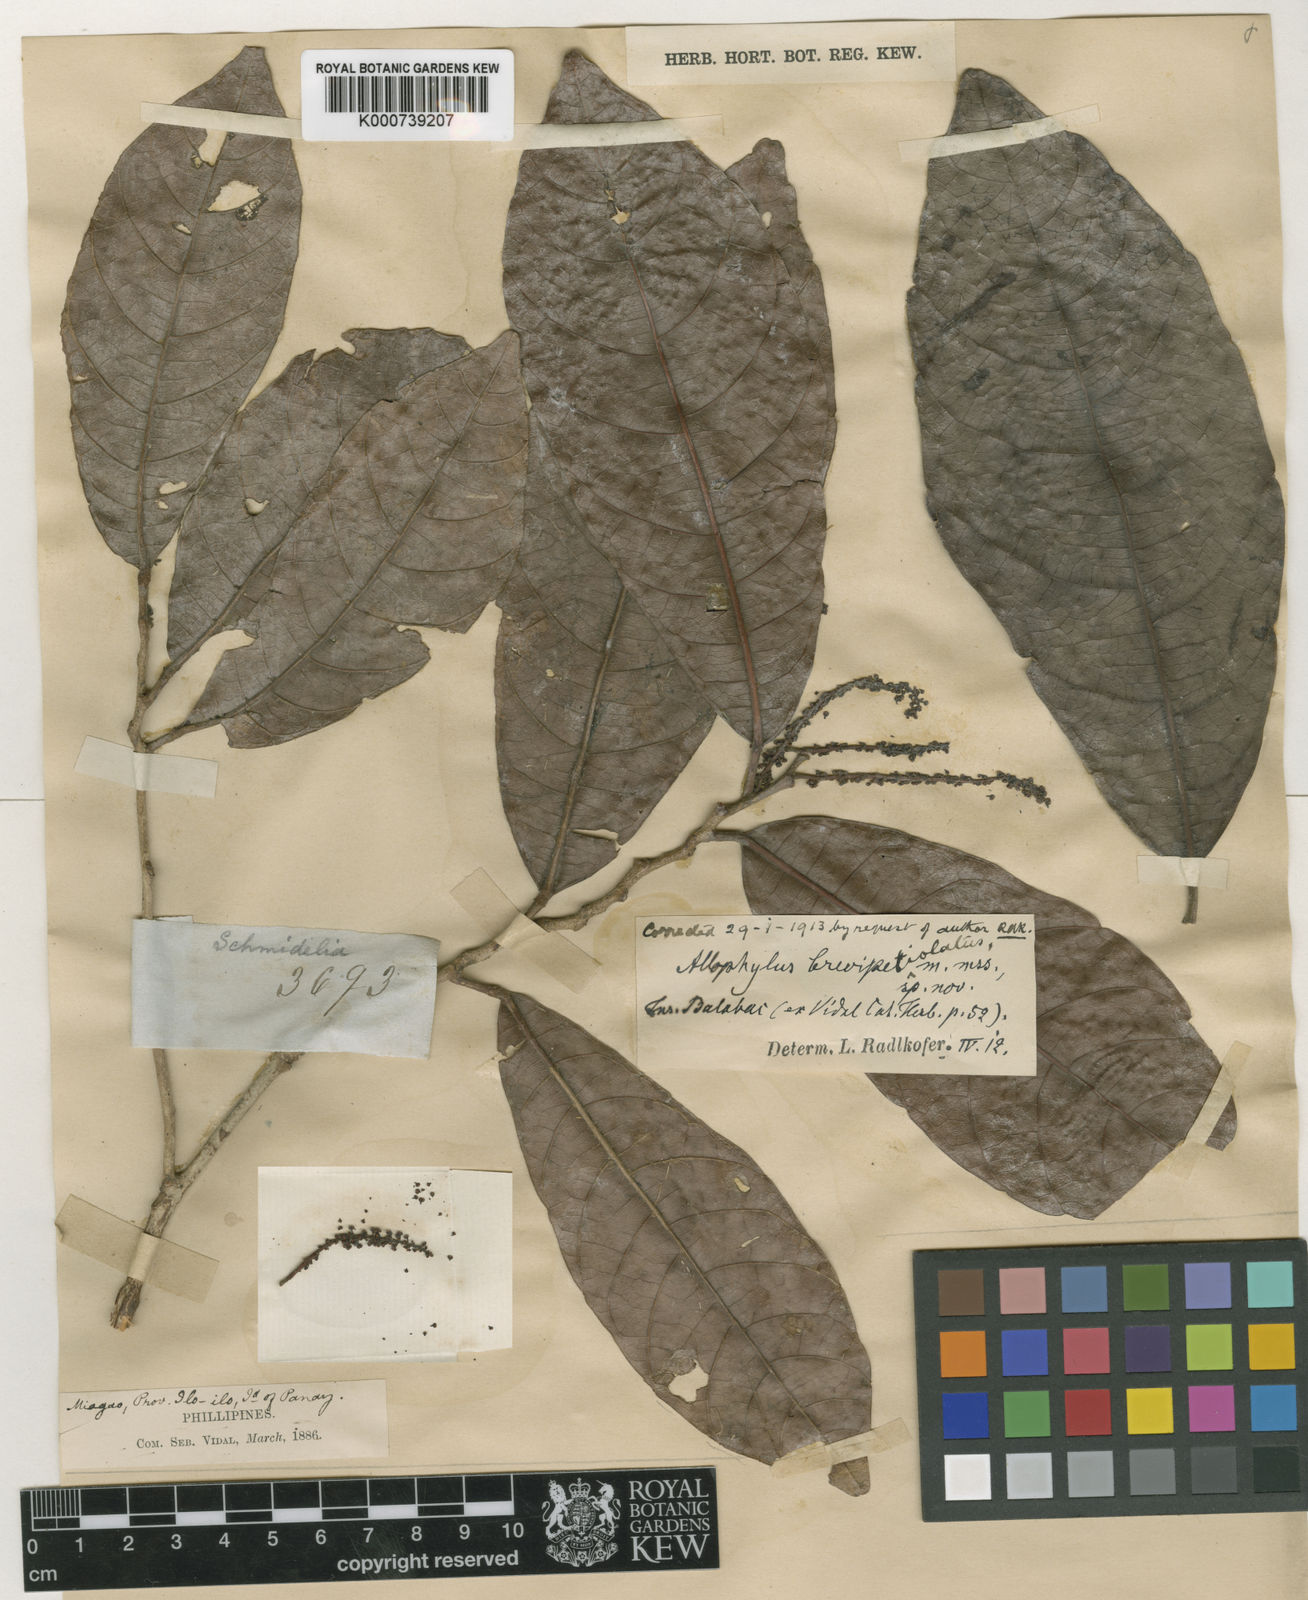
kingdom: Plantae
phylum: Tracheophyta
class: Magnoliopsida
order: Sapindales
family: Sapindaceae
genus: Allophylus
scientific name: Allophylus brevipetiolaris
